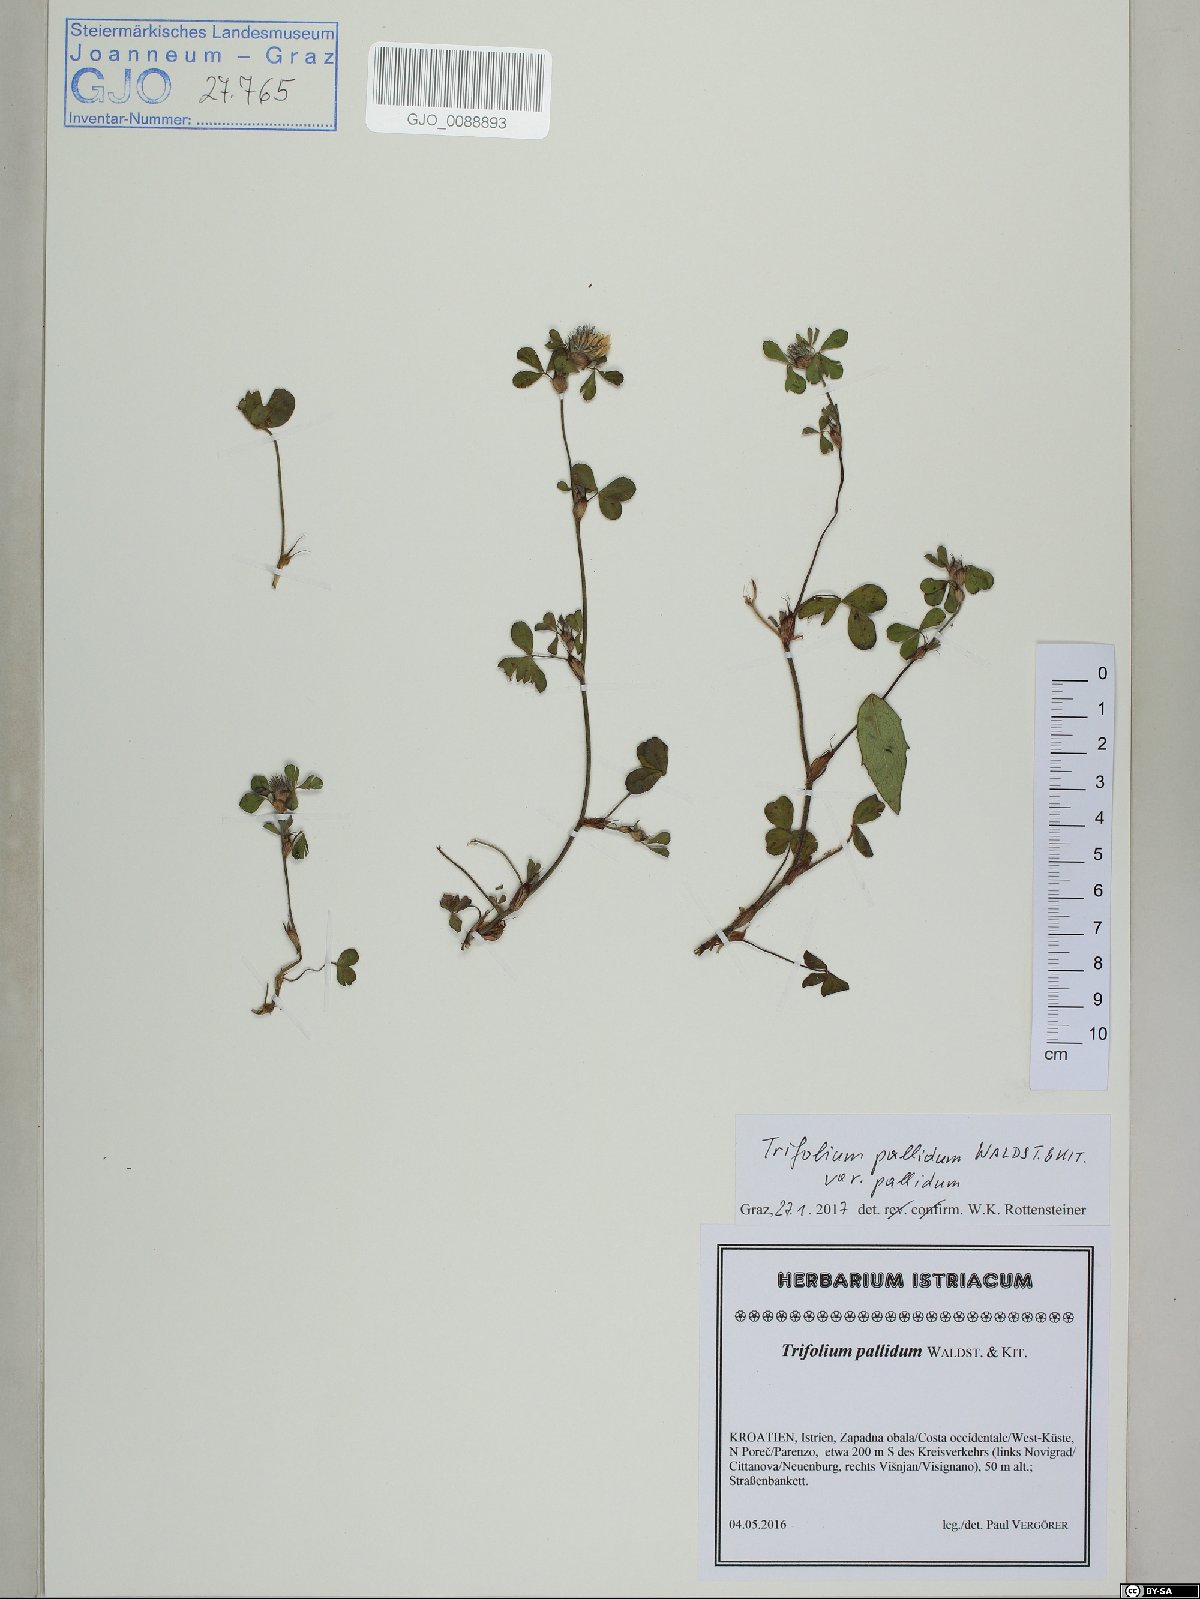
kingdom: Plantae
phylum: Tracheophyta
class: Magnoliopsida
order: Fabales
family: Fabaceae
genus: Trifolium
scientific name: Trifolium pallidum
